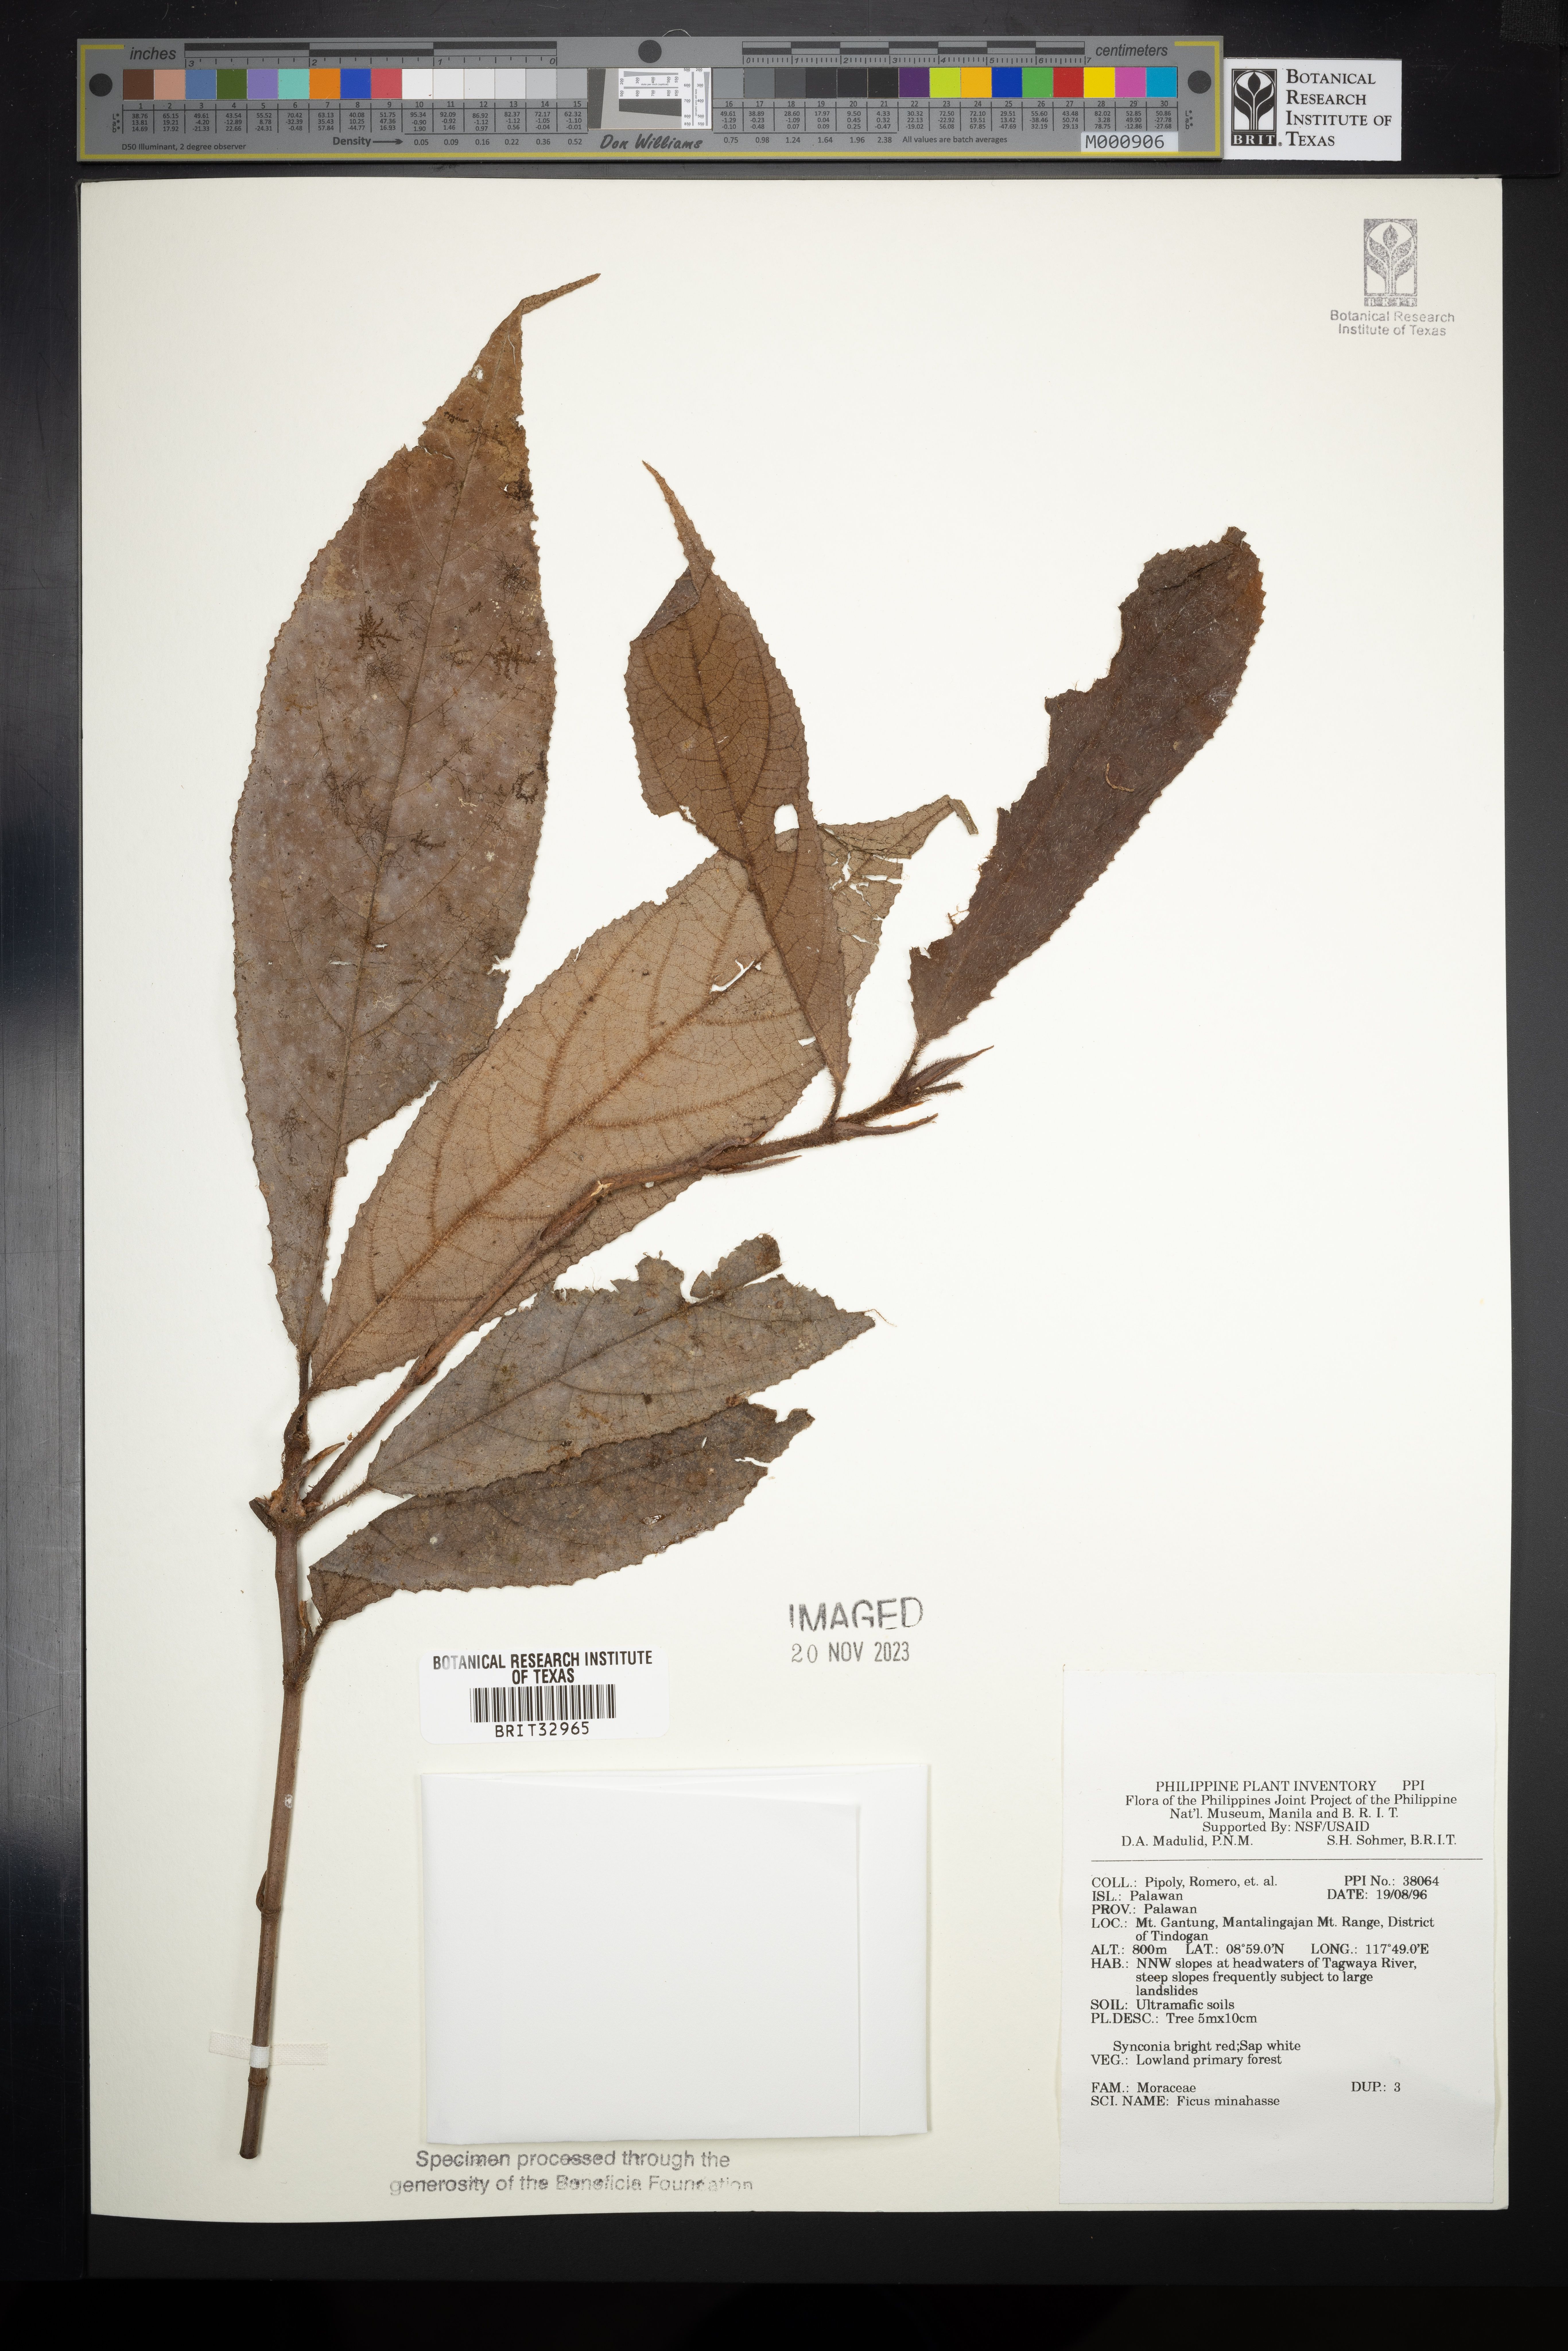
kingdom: Plantae
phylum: Tracheophyta
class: Magnoliopsida
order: Rosales
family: Moraceae
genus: Ficus
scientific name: Ficus minahassae
